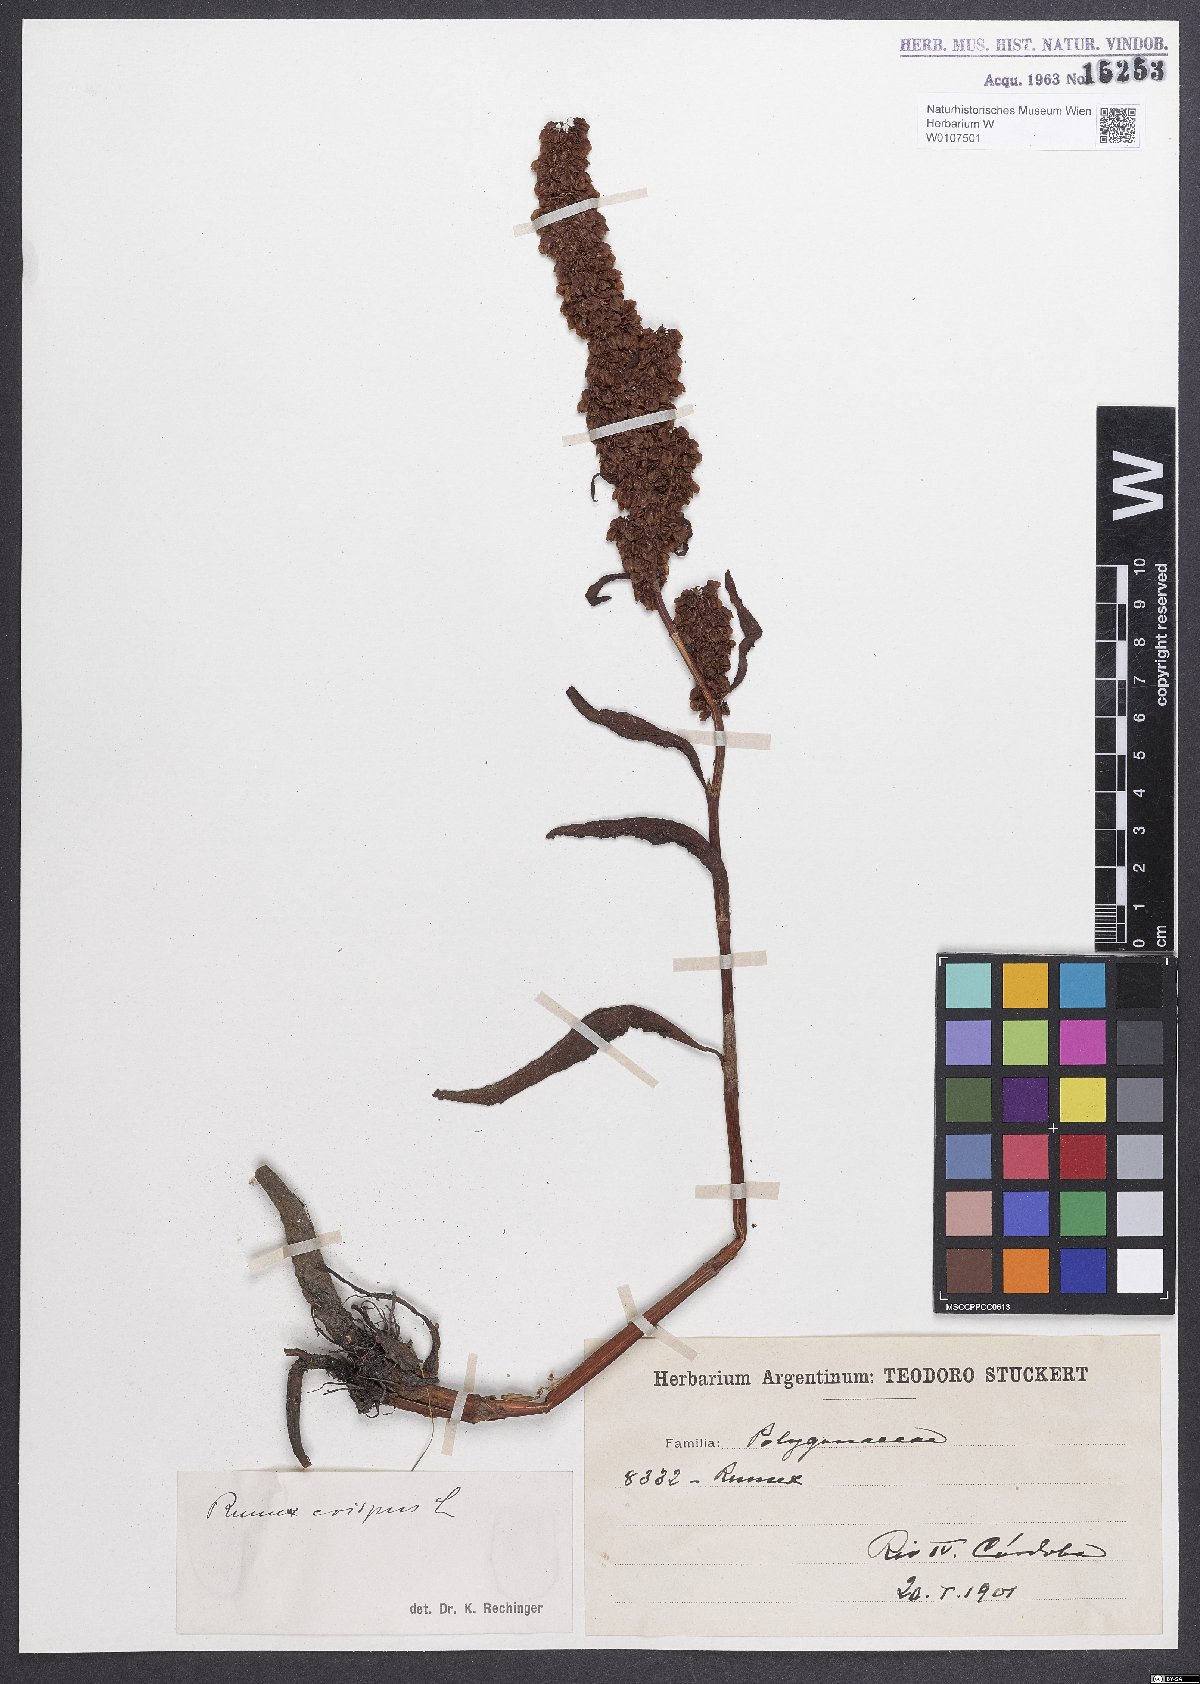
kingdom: Plantae
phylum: Tracheophyta
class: Magnoliopsida
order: Caryophyllales
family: Polygonaceae
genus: Rumex
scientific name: Rumex crispus
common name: Curled dock
